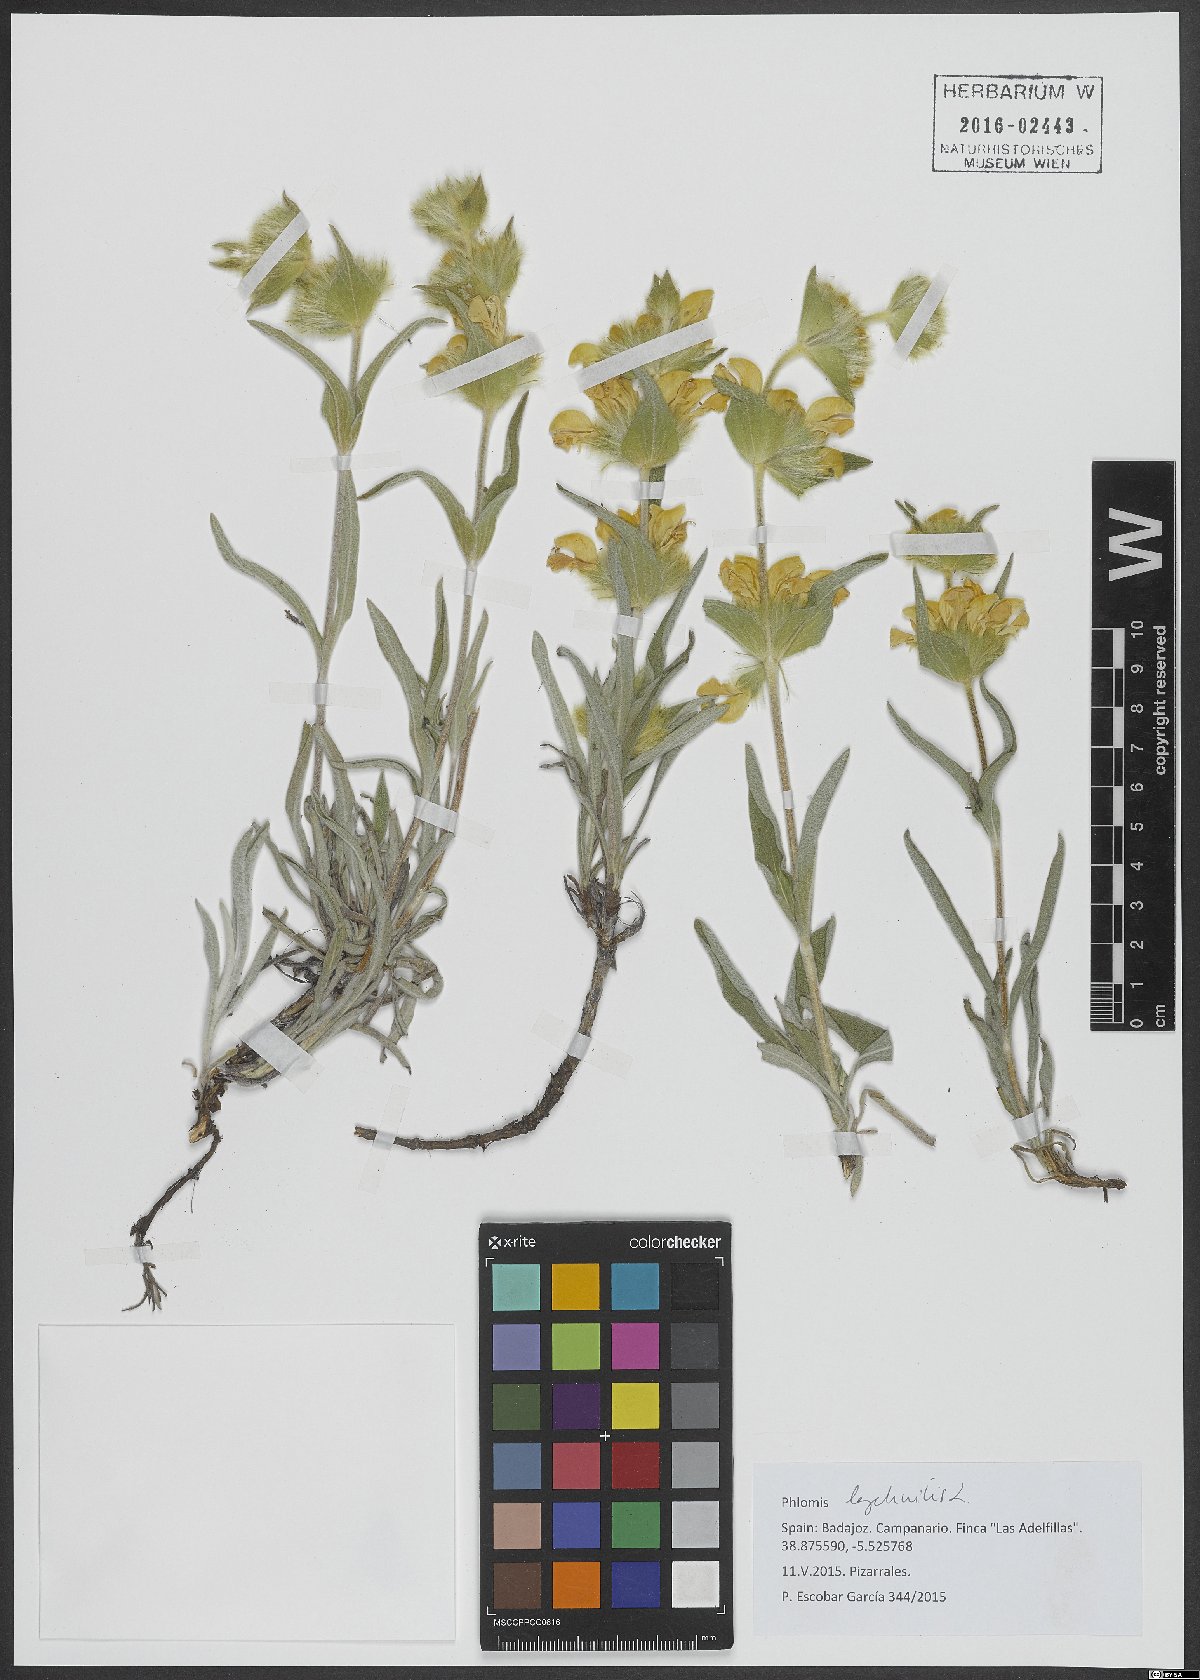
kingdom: Plantae
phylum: Tracheophyta
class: Magnoliopsida
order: Lamiales
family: Lamiaceae
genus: Phlomis
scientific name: Phlomis lychnitis
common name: Lampwickplant
